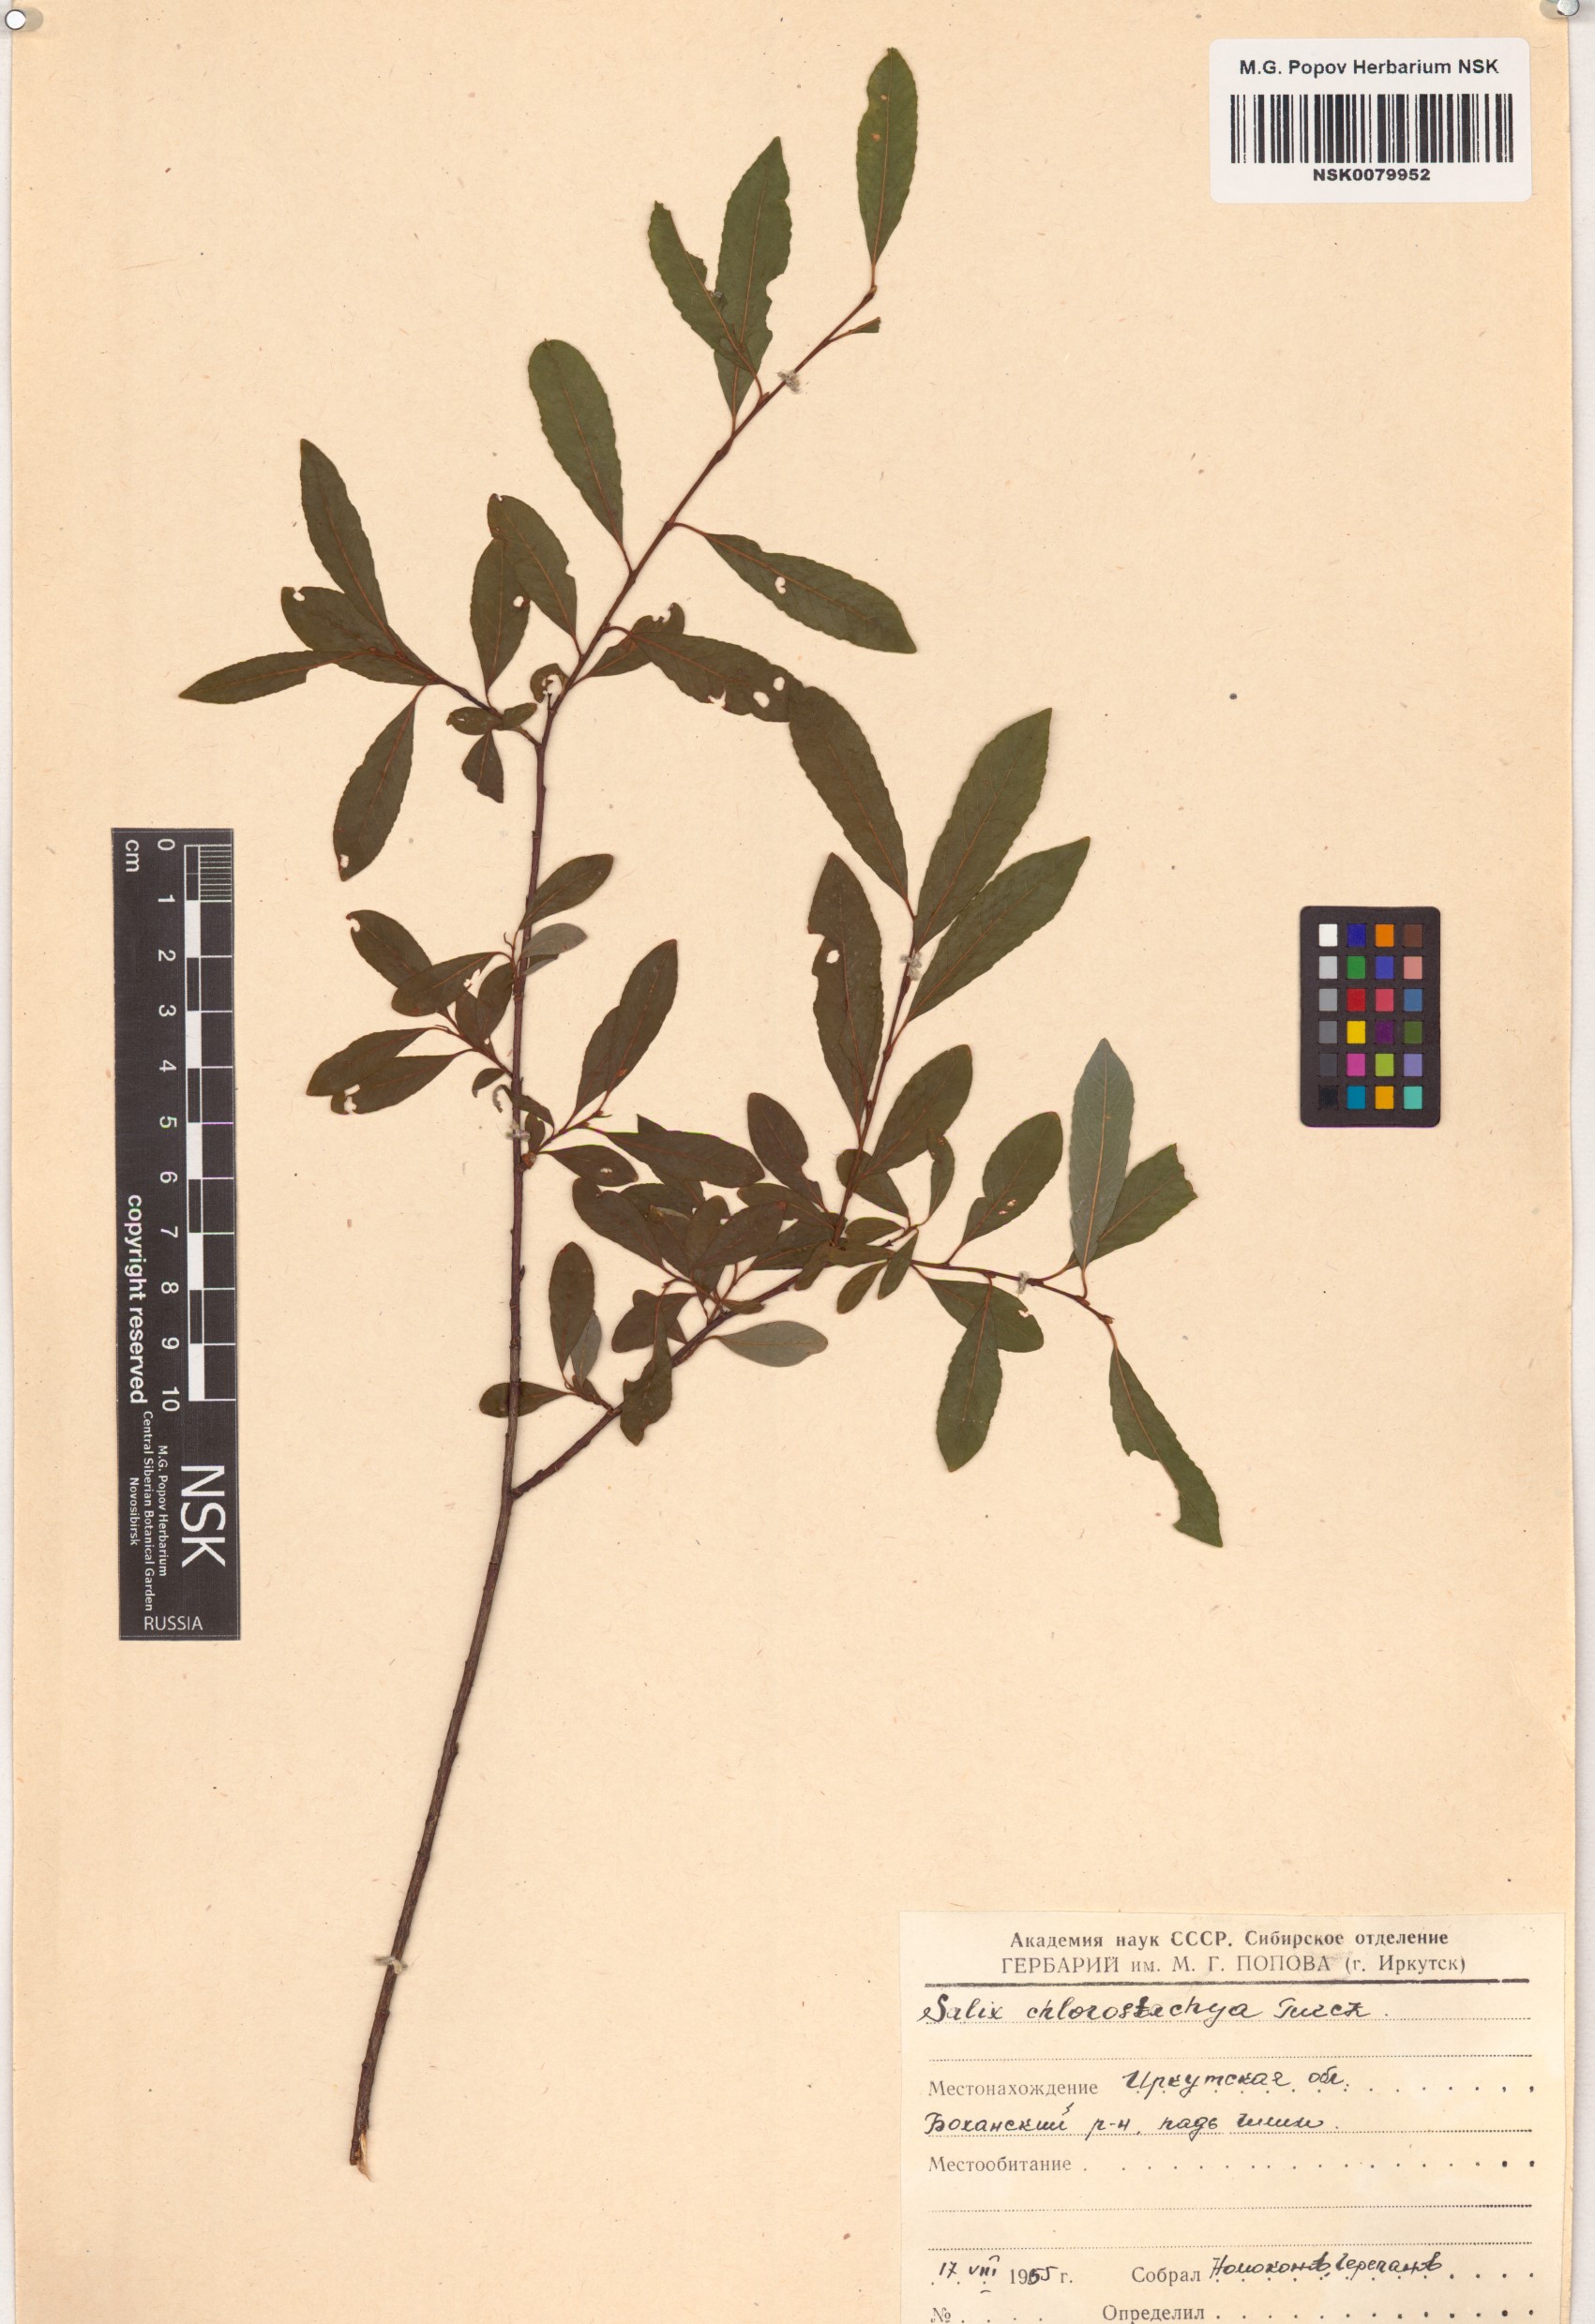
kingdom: Plantae
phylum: Tracheophyta
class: Magnoliopsida
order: Malpighiales
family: Salicaceae
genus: Salix
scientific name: Salix rhamnifolia
